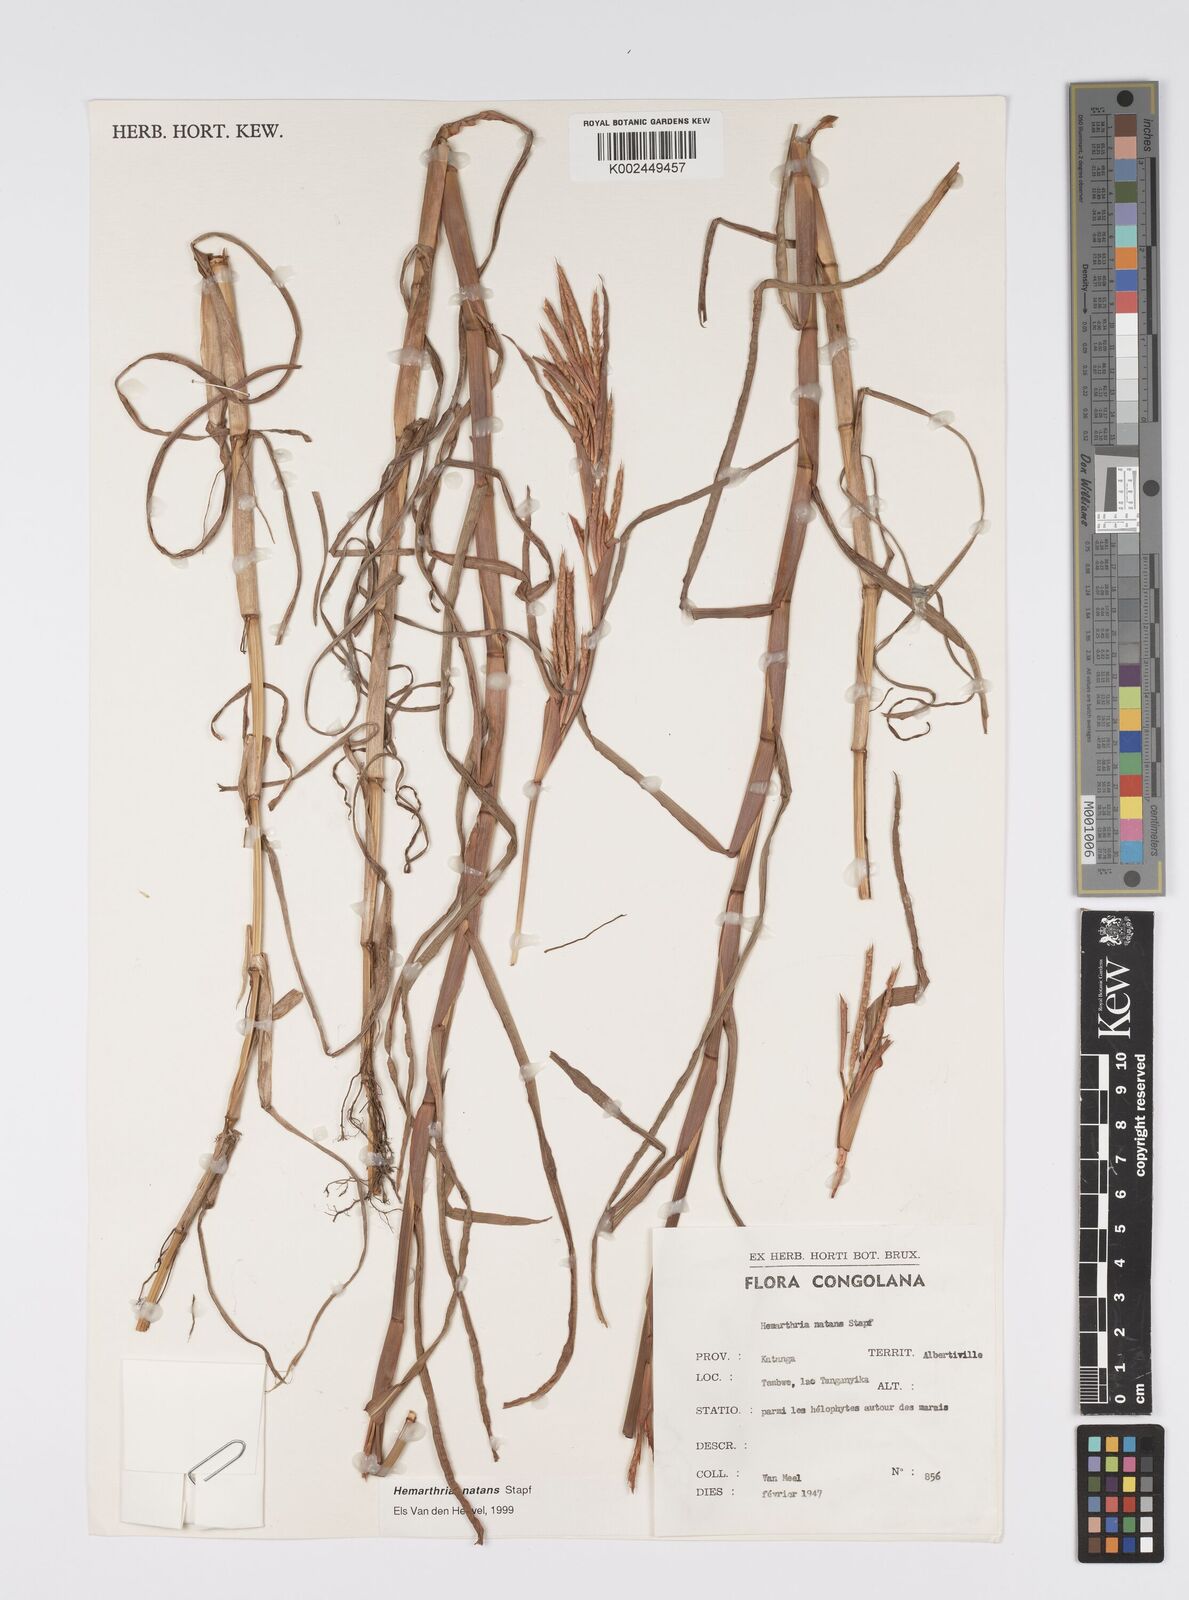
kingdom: Plantae
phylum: Tracheophyta
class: Liliopsida
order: Poales
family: Poaceae
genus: Hemarthria
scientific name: Hemarthria natans
